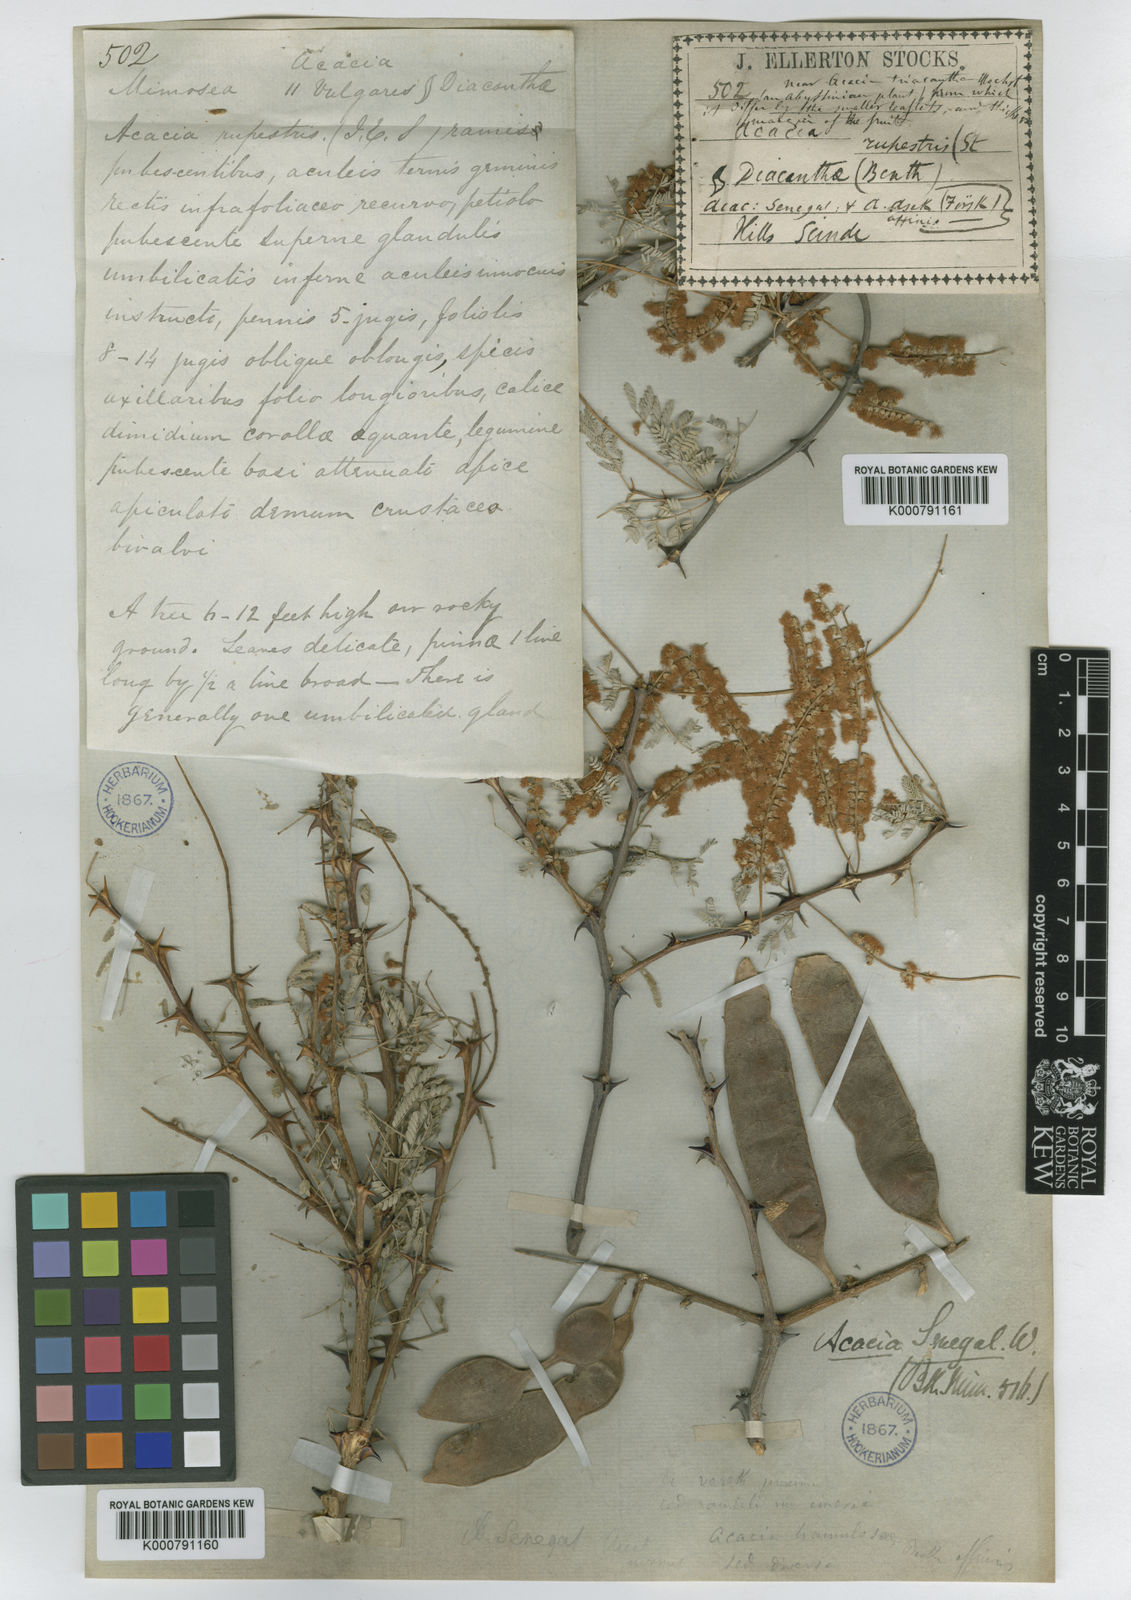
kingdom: Plantae
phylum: Tracheophyta
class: Magnoliopsida
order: Fabales
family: Fabaceae
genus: Senegalia
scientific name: Senegalia senegal
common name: Senegal-gum
